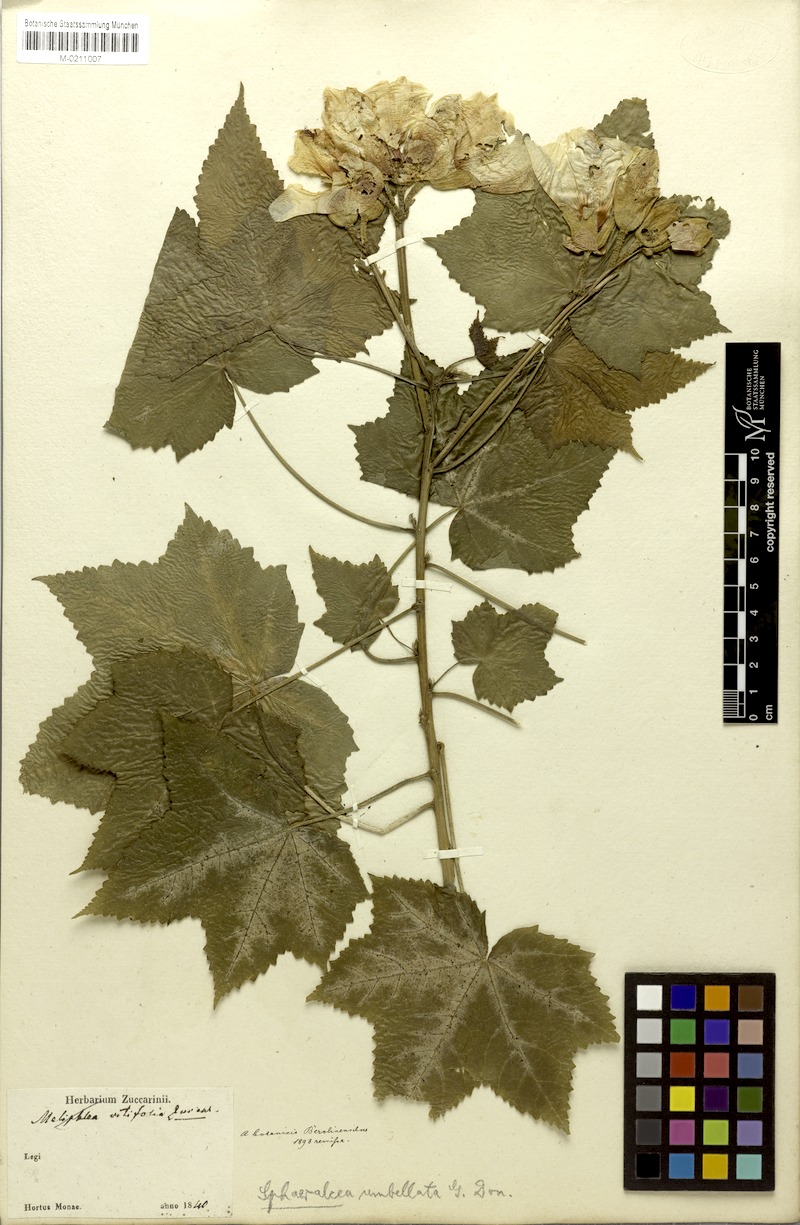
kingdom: Plantae
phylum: Tracheophyta
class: Magnoliopsida
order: Malvales
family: Malvaceae
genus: Phymosia
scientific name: Phymosia rosea
